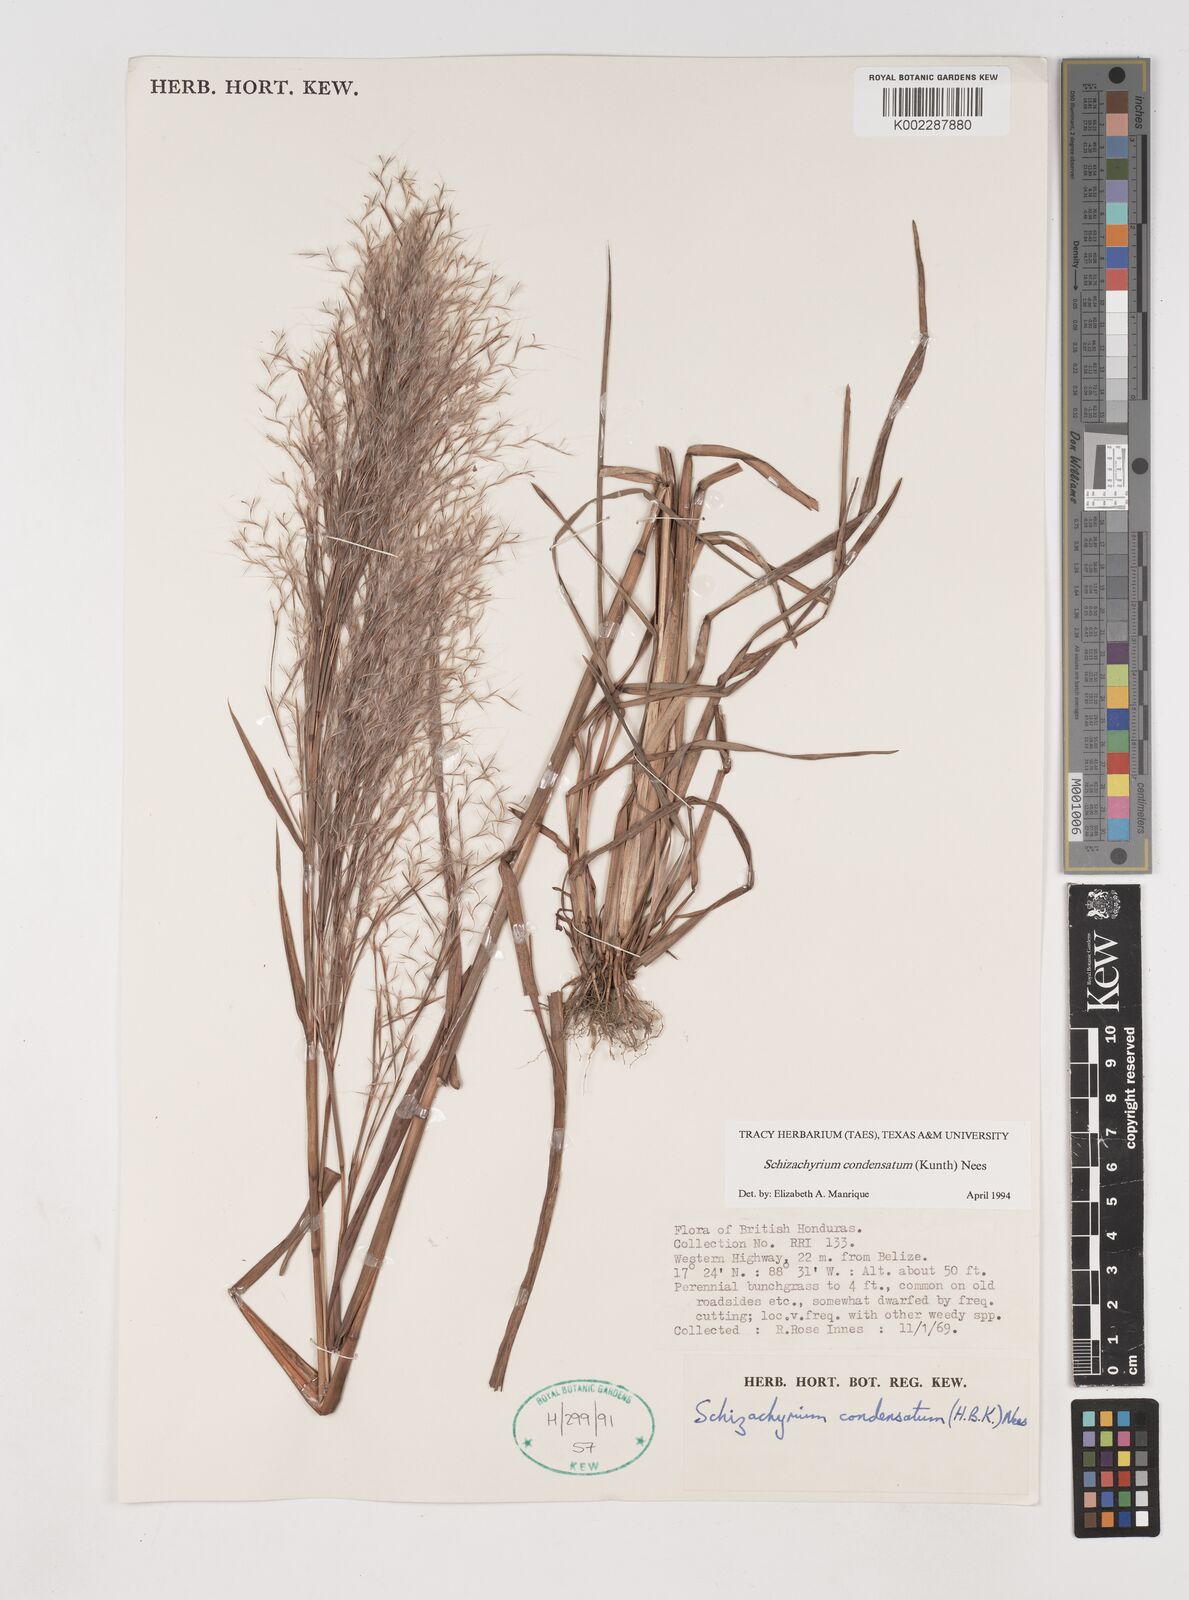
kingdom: Plantae
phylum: Tracheophyta
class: Liliopsida
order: Poales
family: Poaceae
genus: Schizachyrium
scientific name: Schizachyrium condensatum
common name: Bush beardgrass
